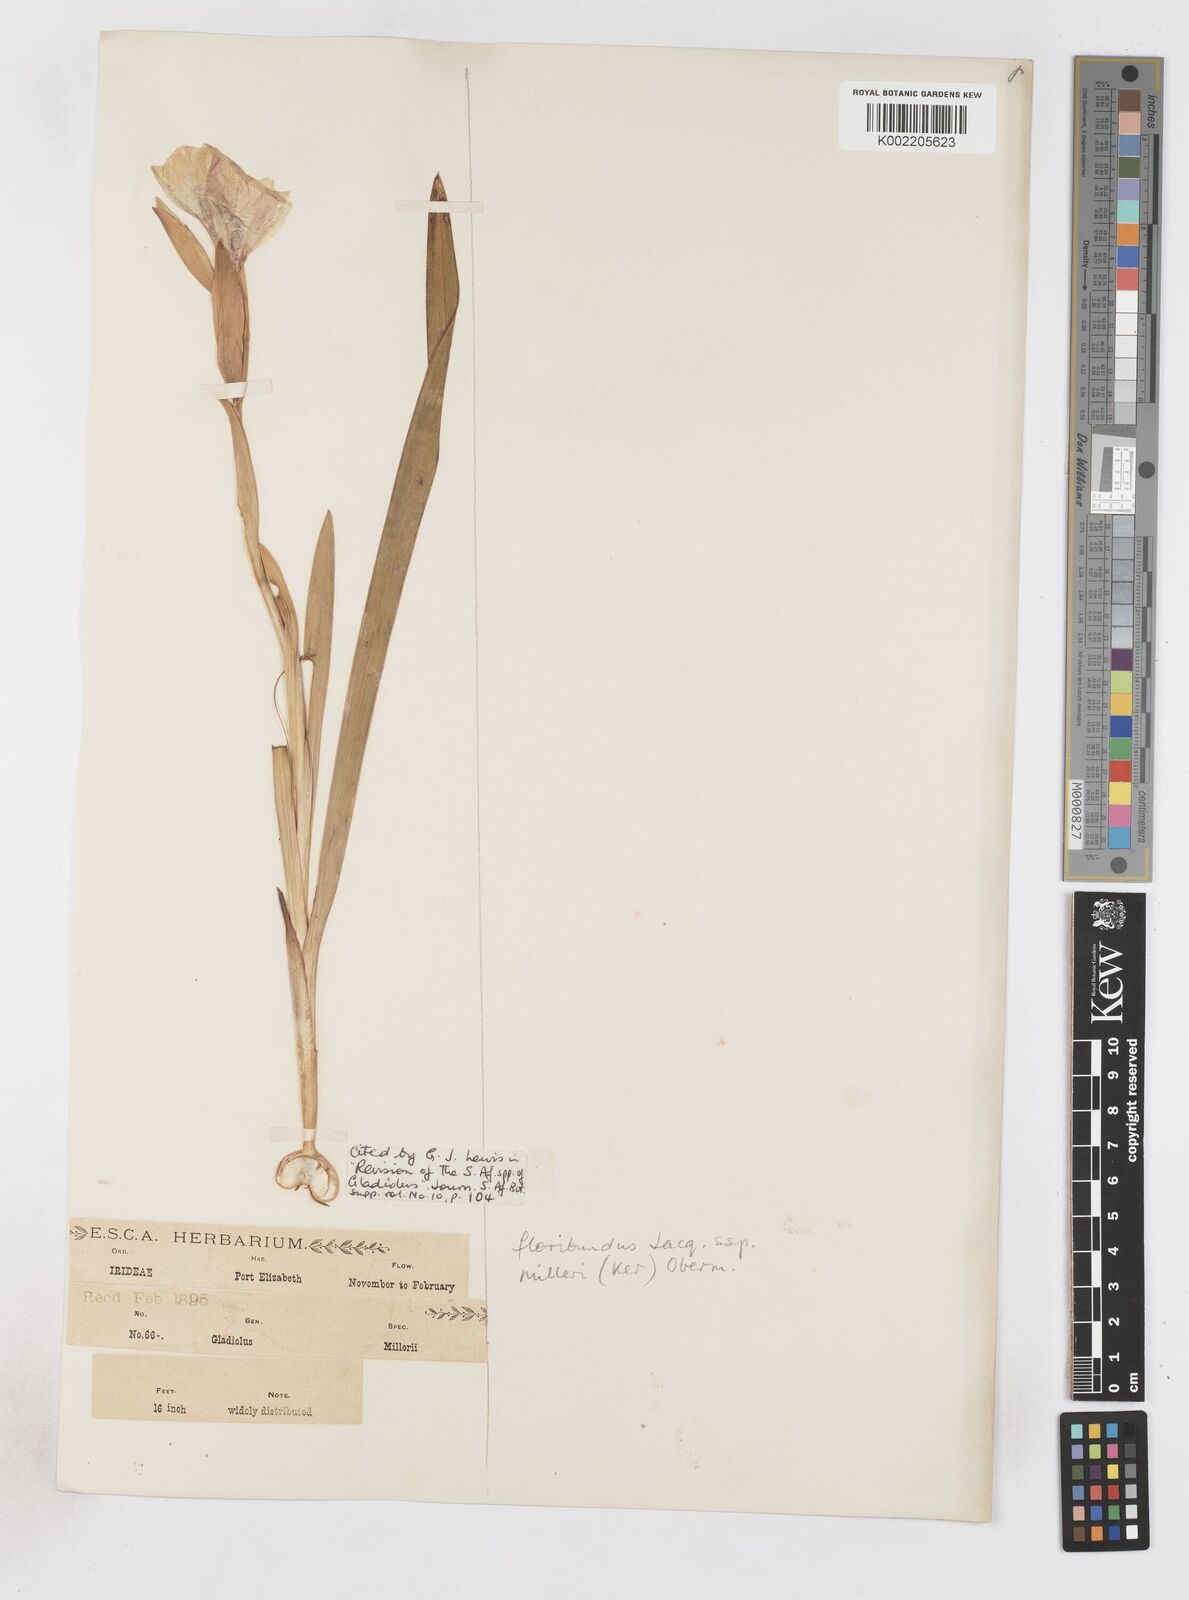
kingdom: Plantae
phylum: Tracheophyta
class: Liliopsida
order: Asparagales
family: Iridaceae
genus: Gladiolus
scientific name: Gladiolus grandiflorus
